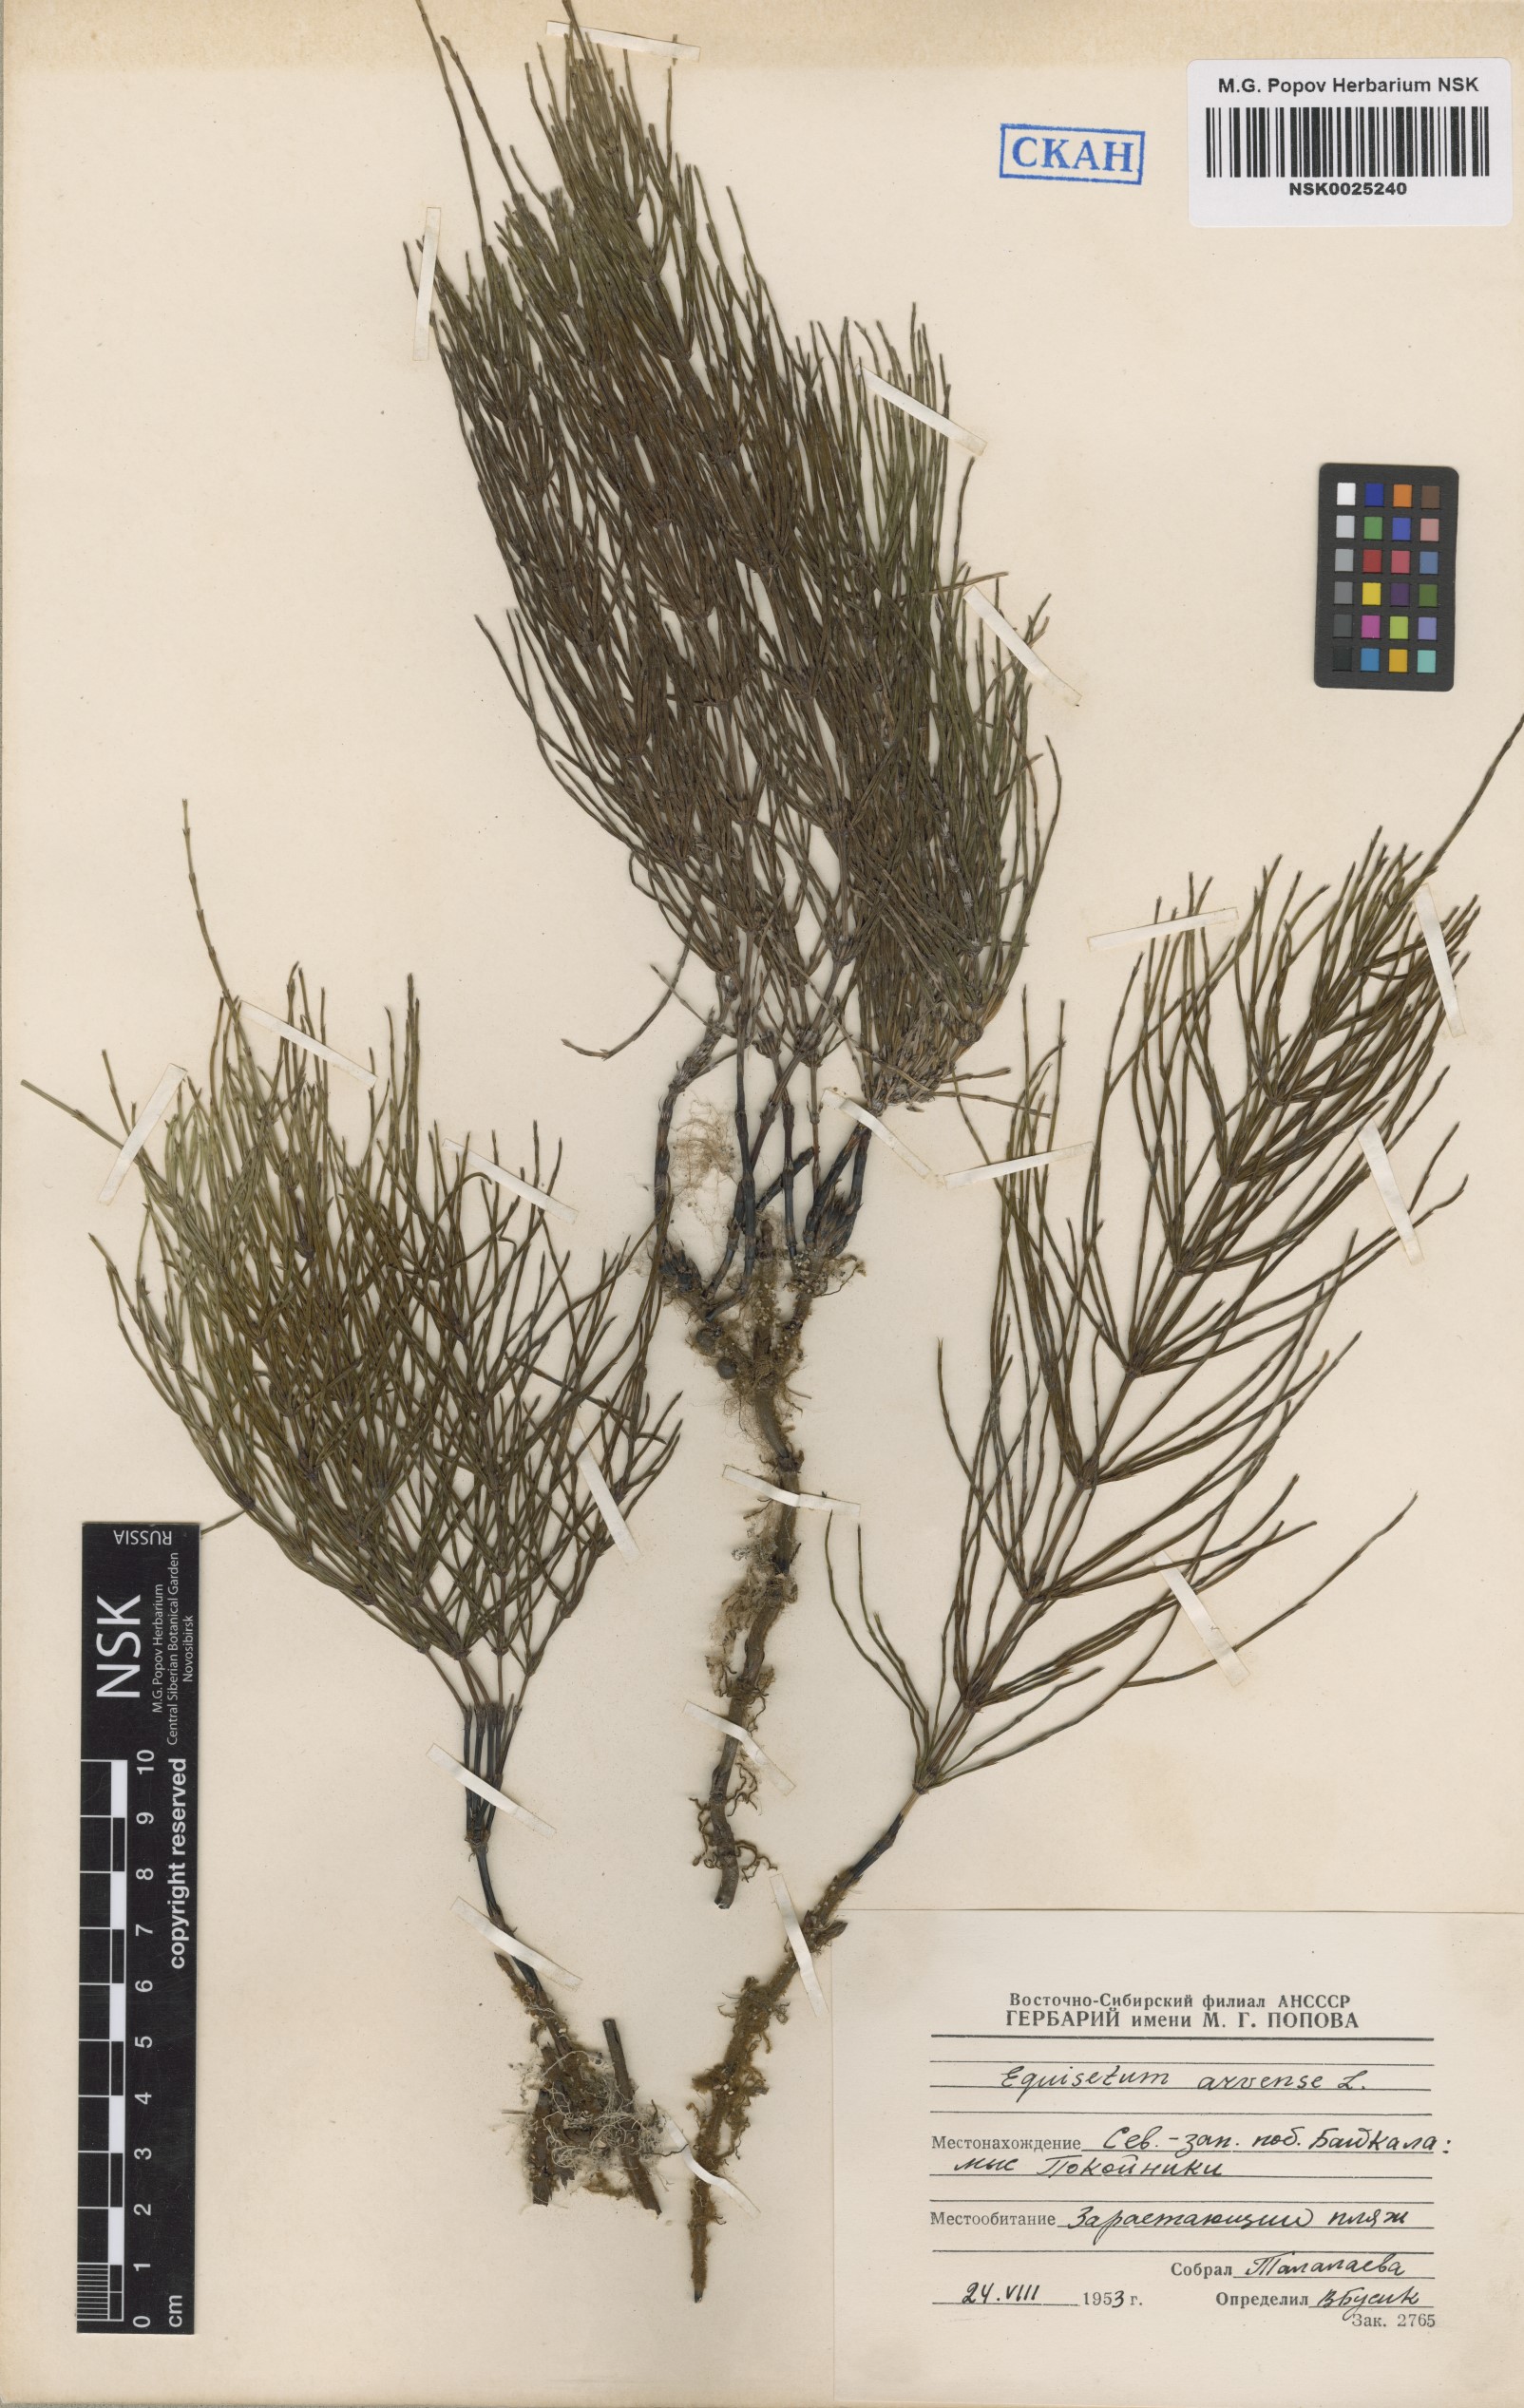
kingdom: Plantae
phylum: Tracheophyta
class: Polypodiopsida
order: Equisetales
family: Equisetaceae
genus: Equisetum
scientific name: Equisetum arvense
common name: Field horsetail
